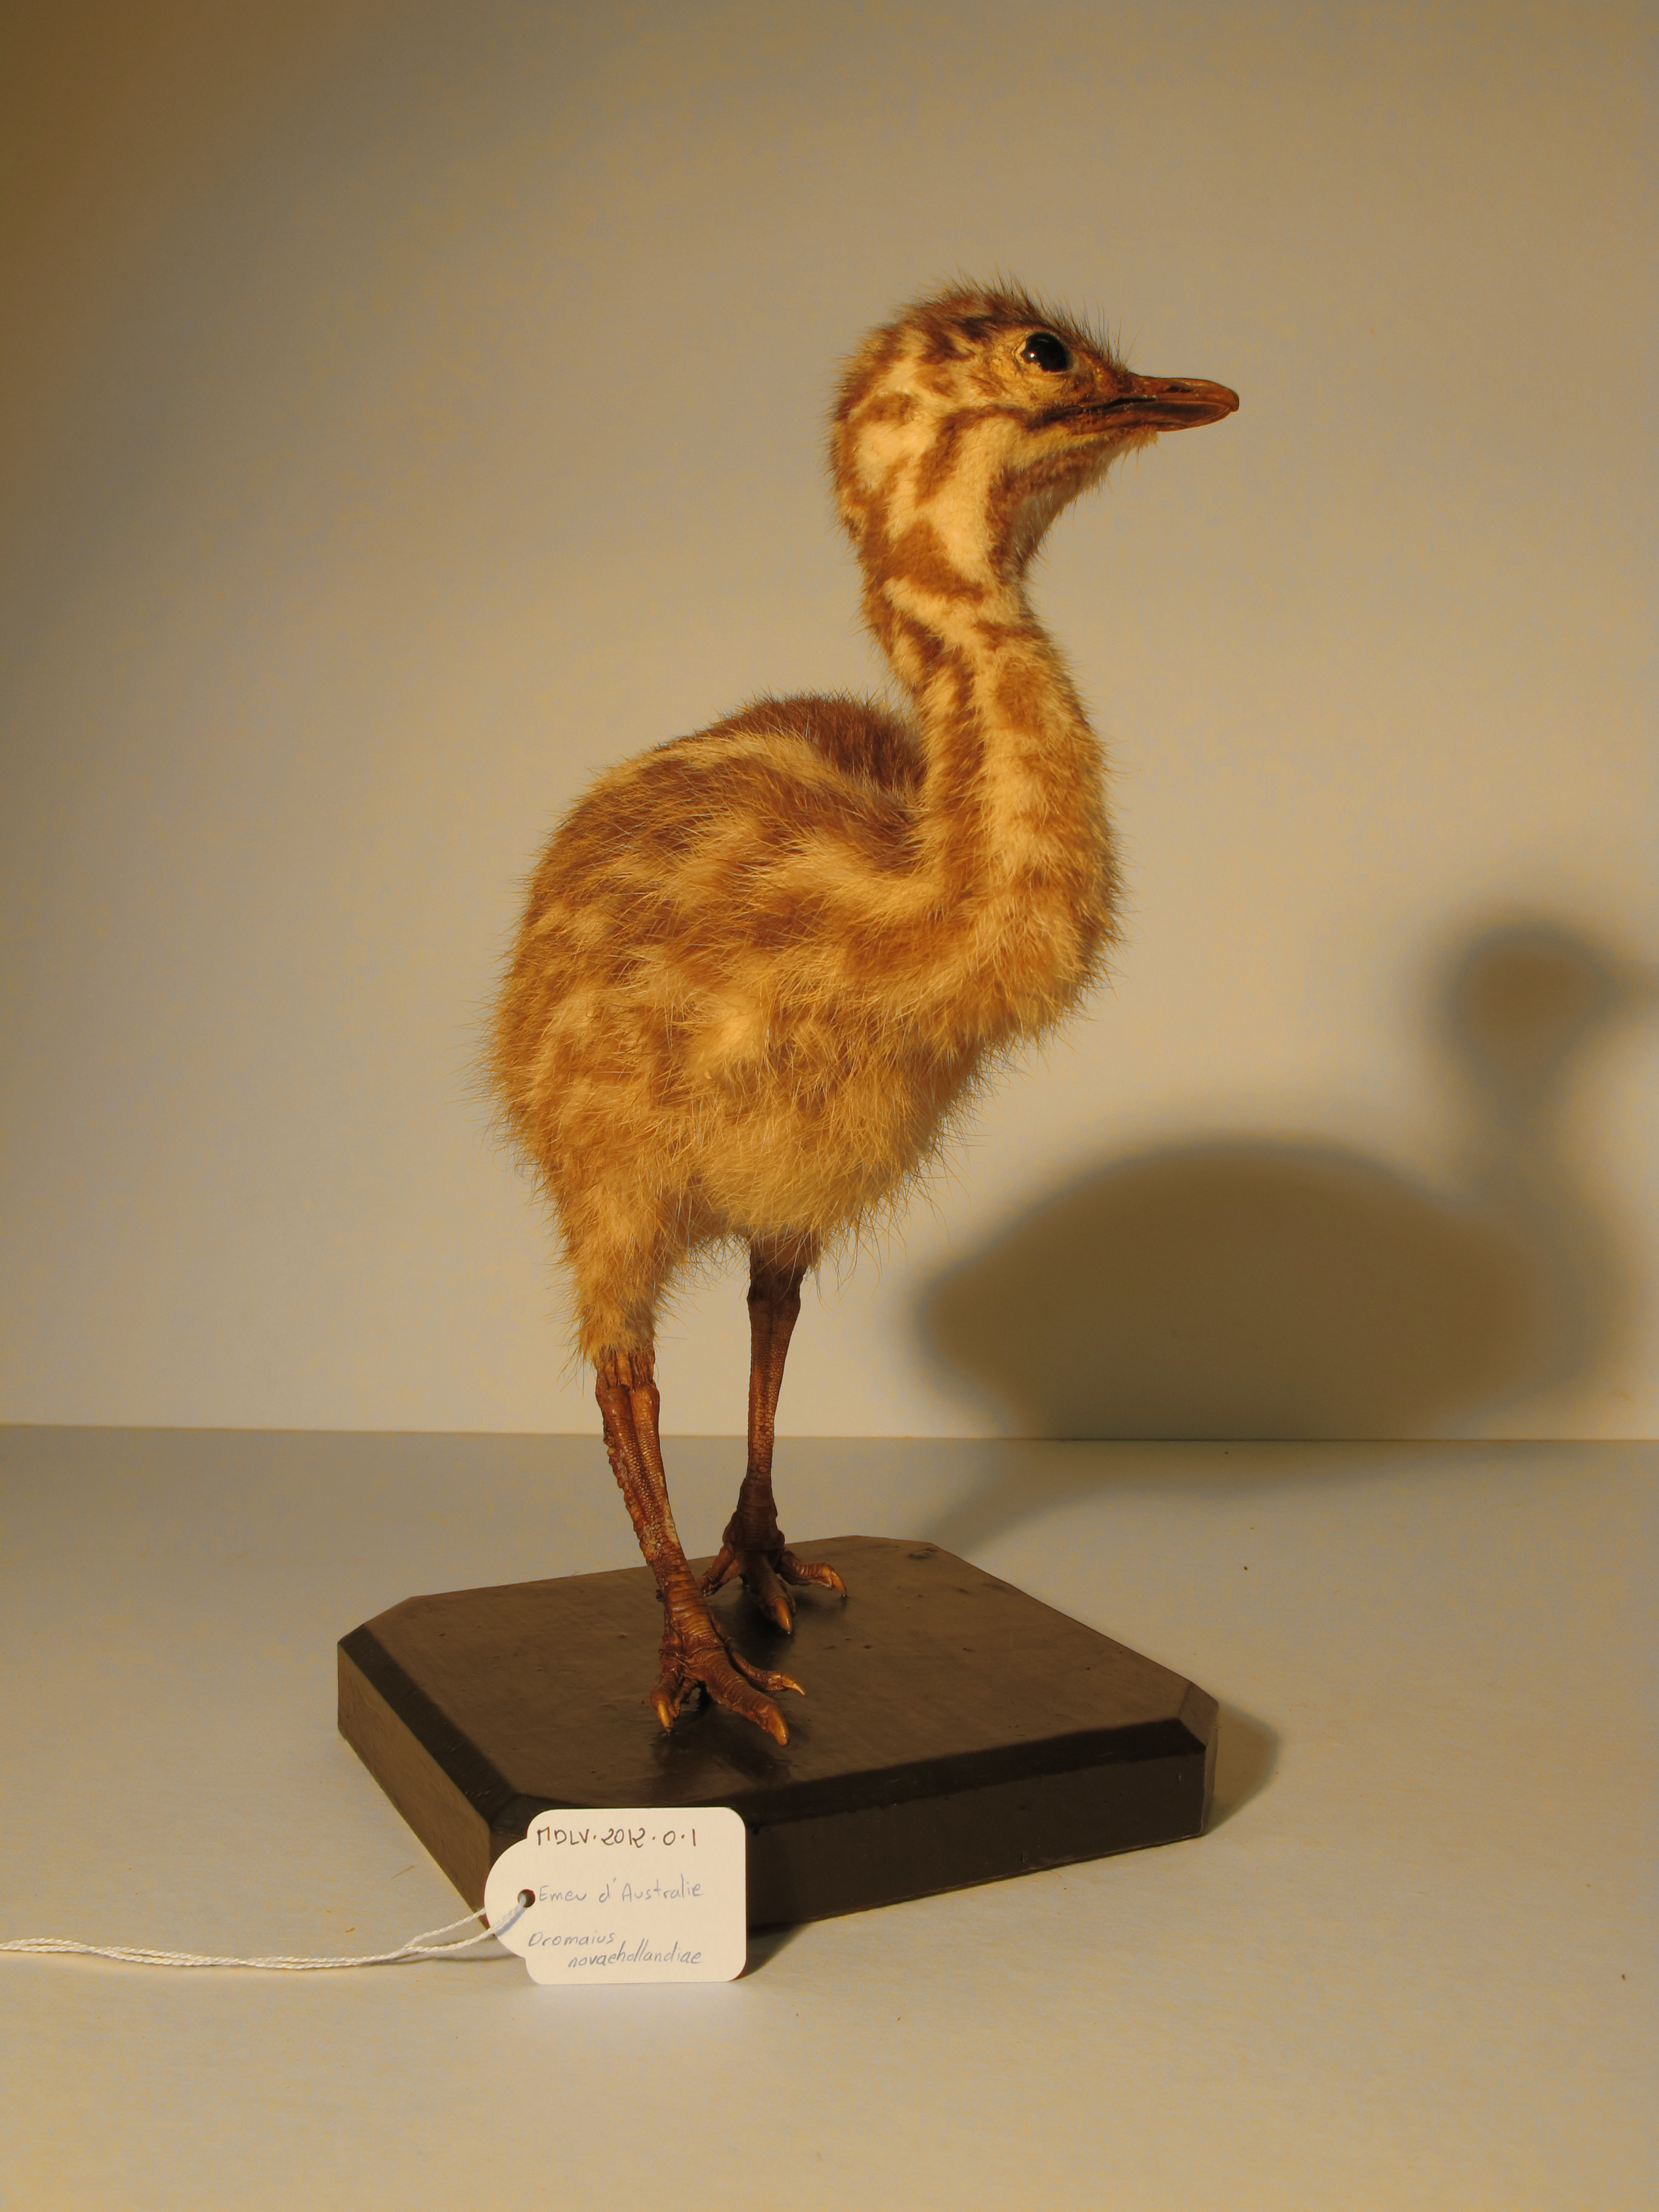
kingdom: Animalia
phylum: Chordata
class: Aves
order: Casuariiformes
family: Dromaiidae
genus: Dromaius
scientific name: Dromaius novaehollandiae
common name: Emu
